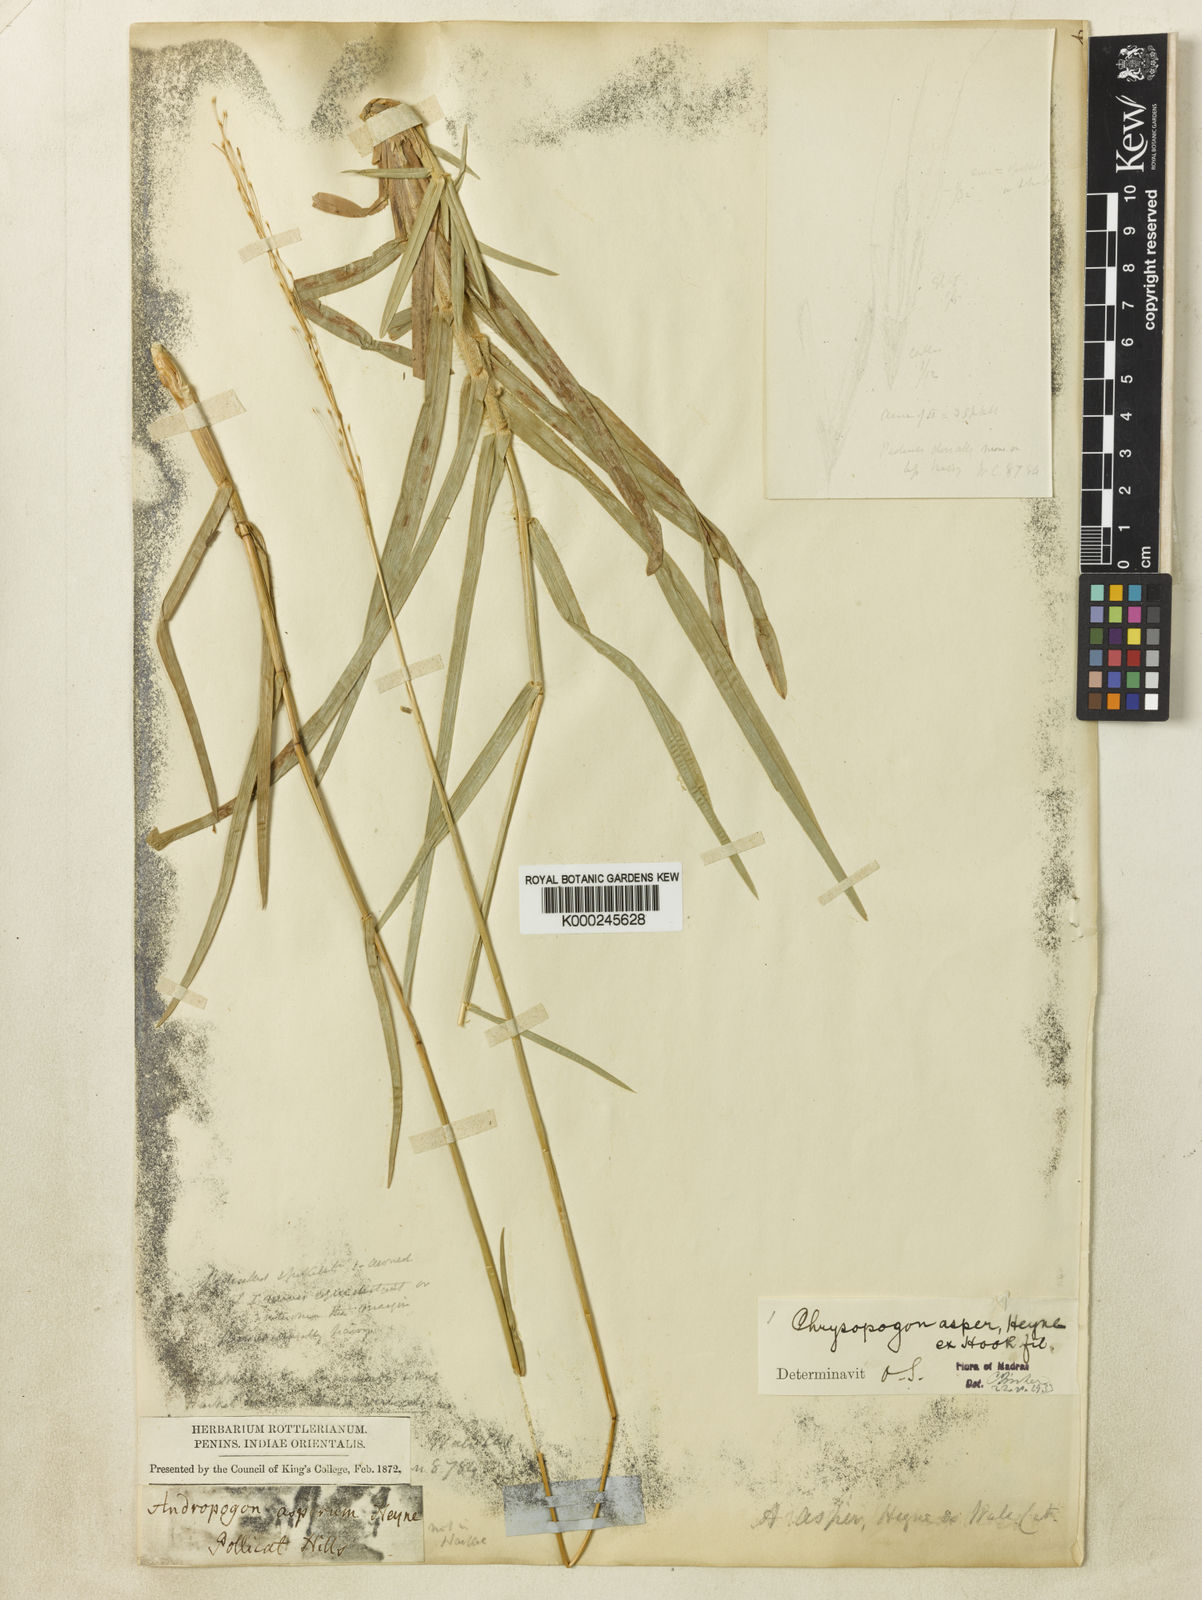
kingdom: Plantae
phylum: Tracheophyta
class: Liliopsida
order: Poales
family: Poaceae
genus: Chrysopogon
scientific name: Chrysopogon asper
